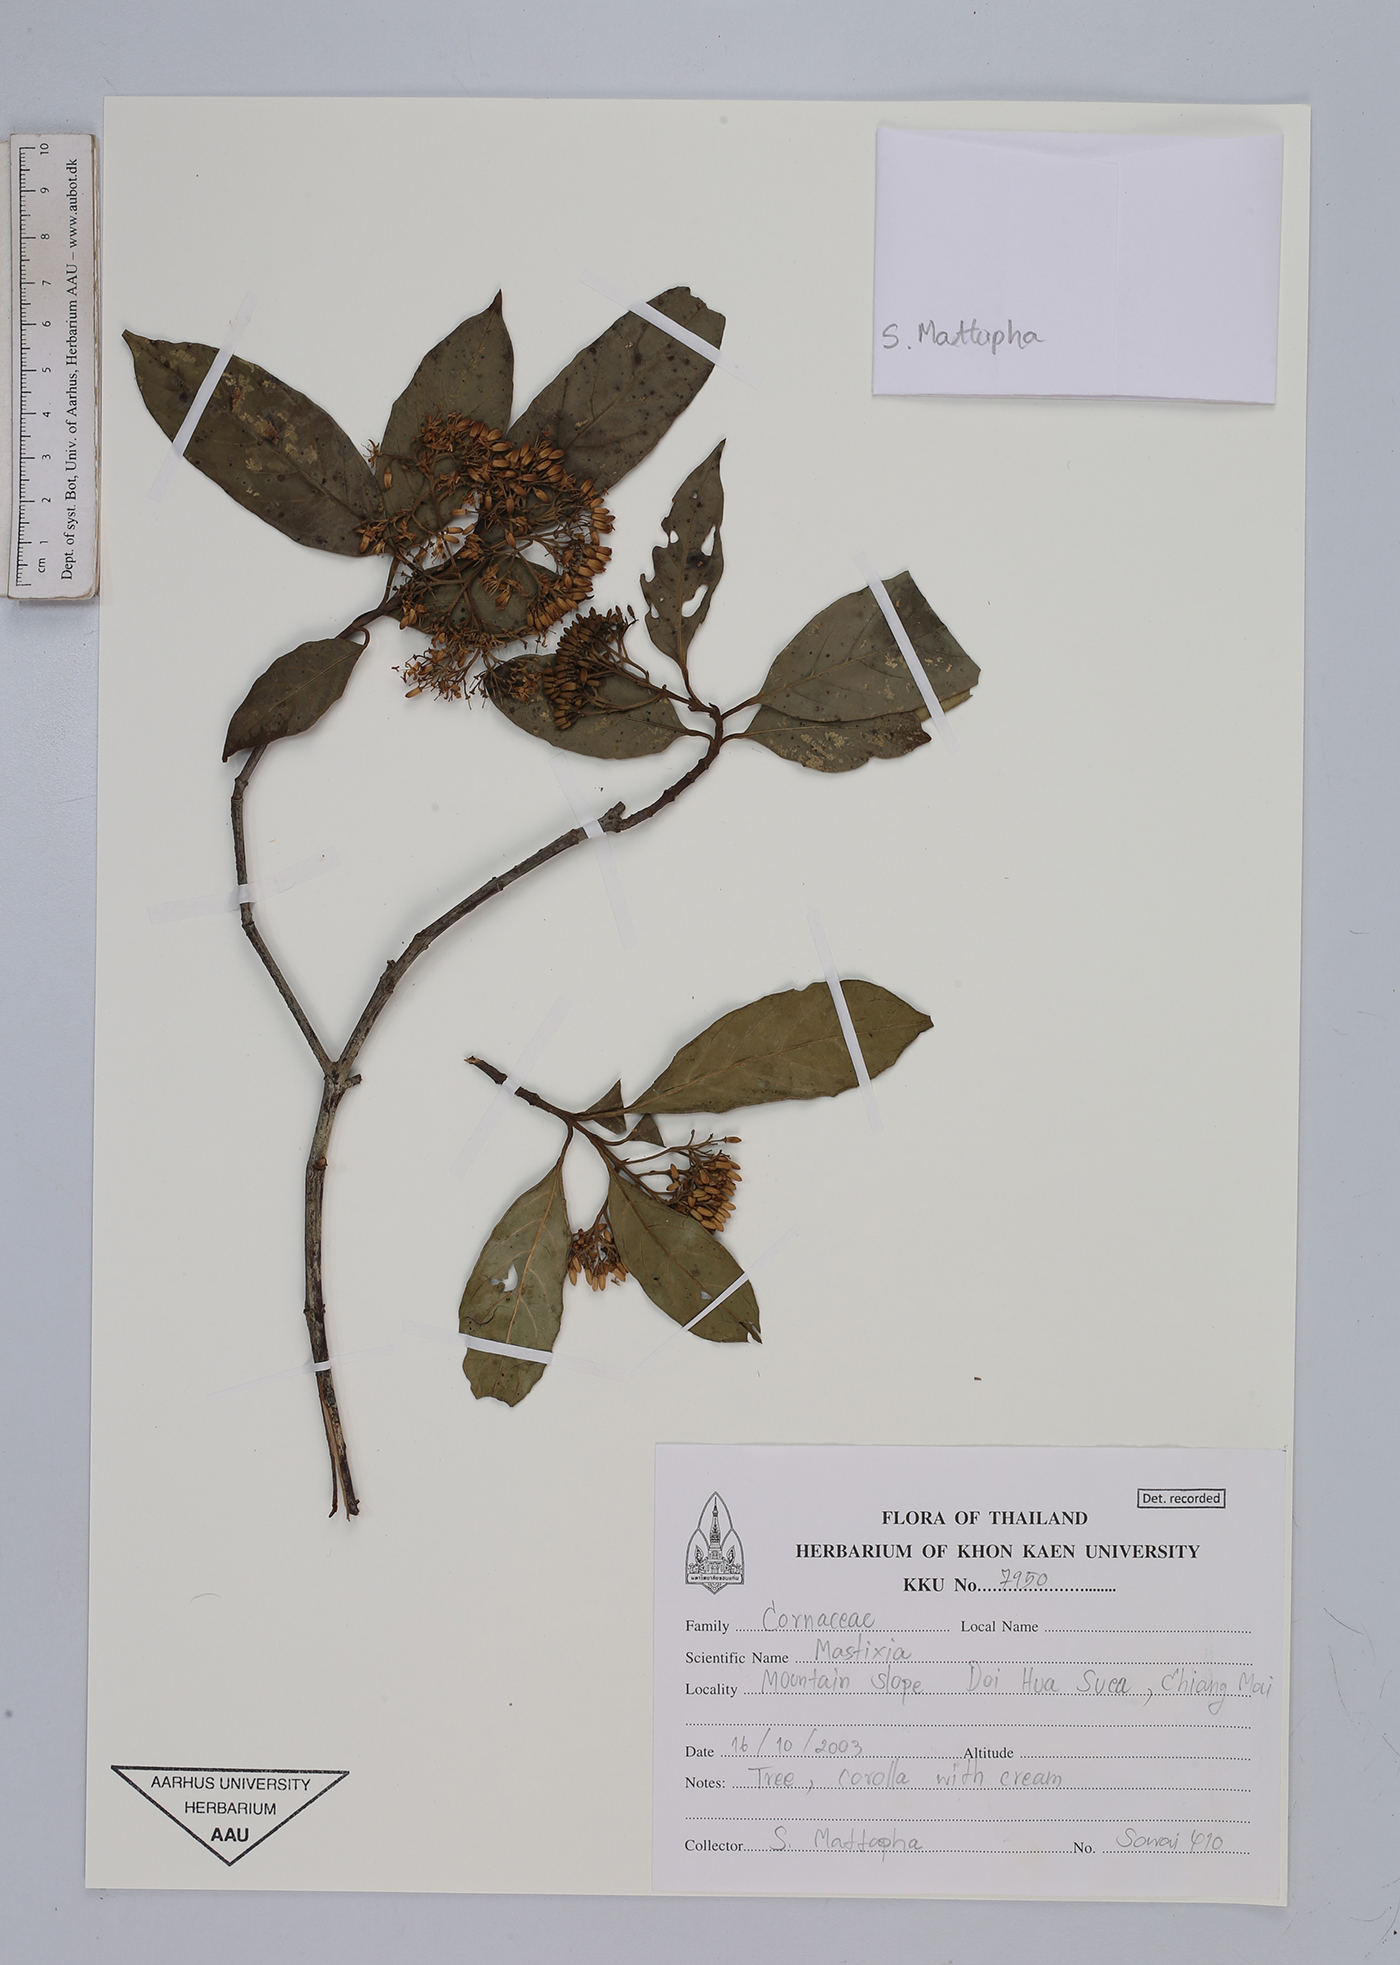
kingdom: Plantae
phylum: Tracheophyta
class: Magnoliopsida
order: Cornales
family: Nyssaceae
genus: Mastixia
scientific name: Mastixia
